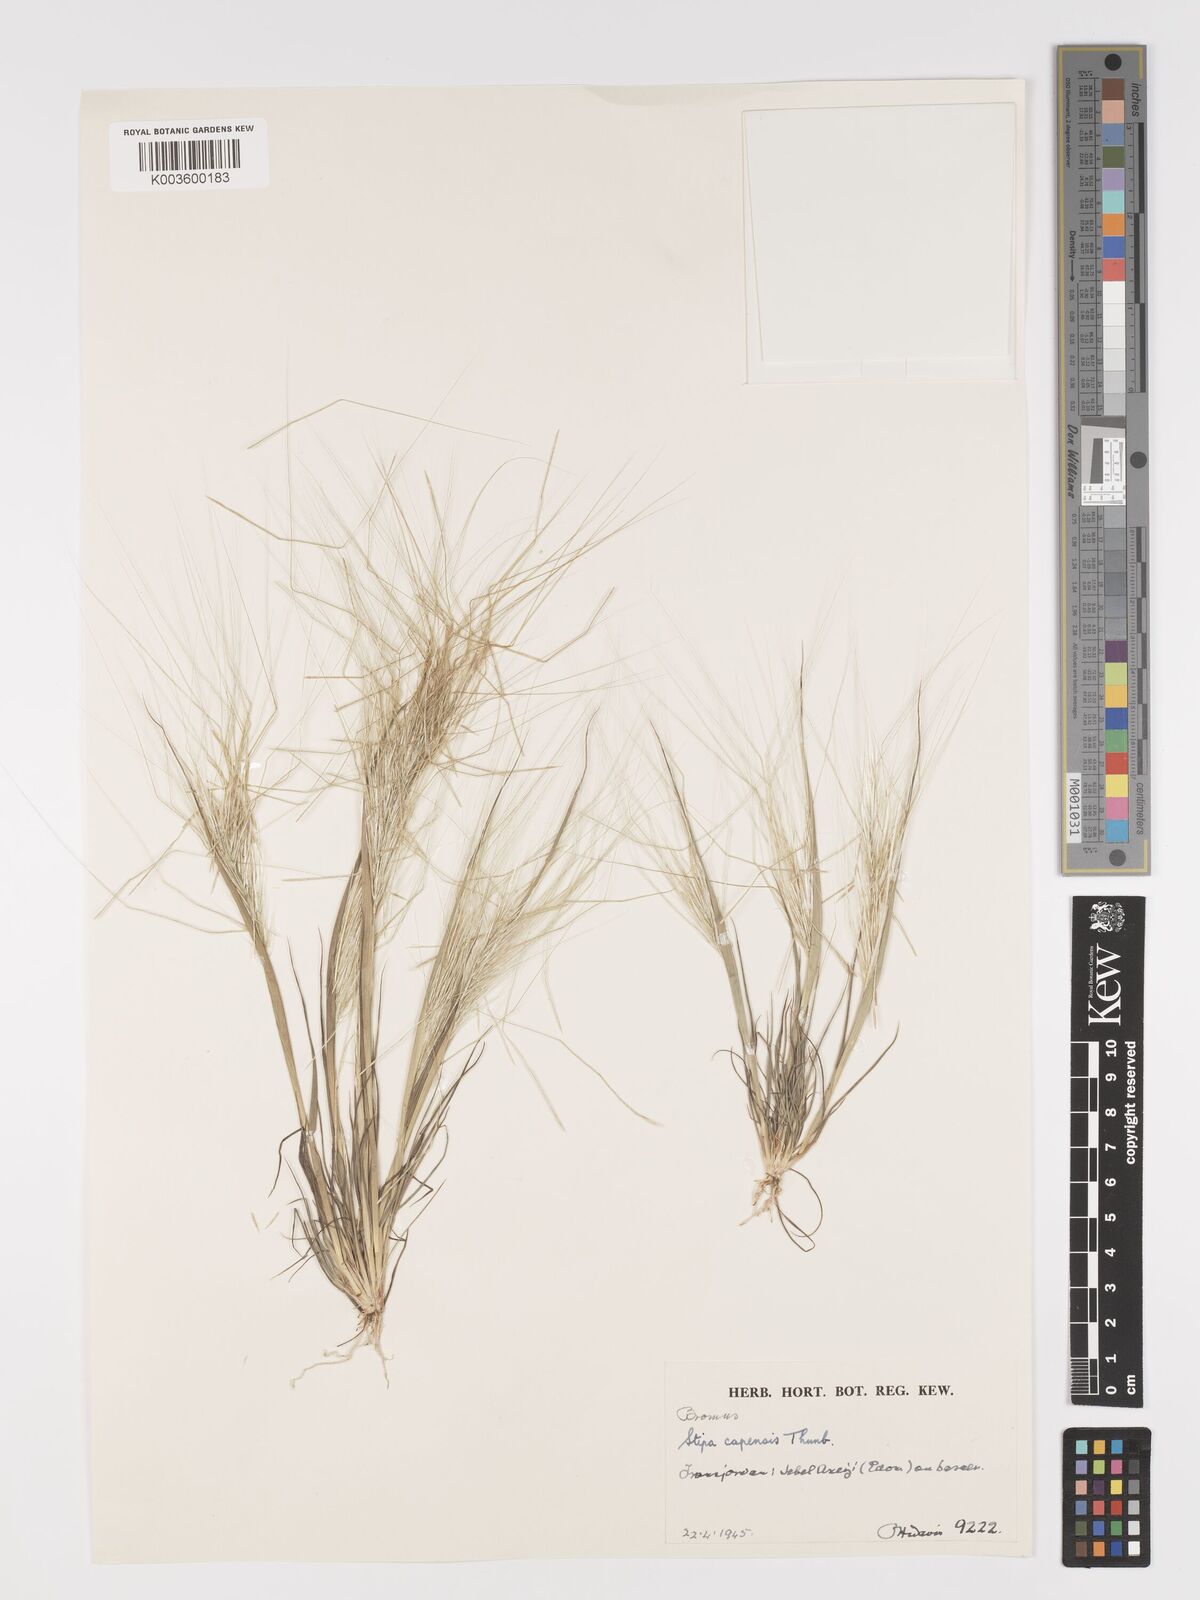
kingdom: Plantae
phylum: Tracheophyta
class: Liliopsida
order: Poales
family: Poaceae
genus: Stipellula
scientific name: Stipellula capensis
